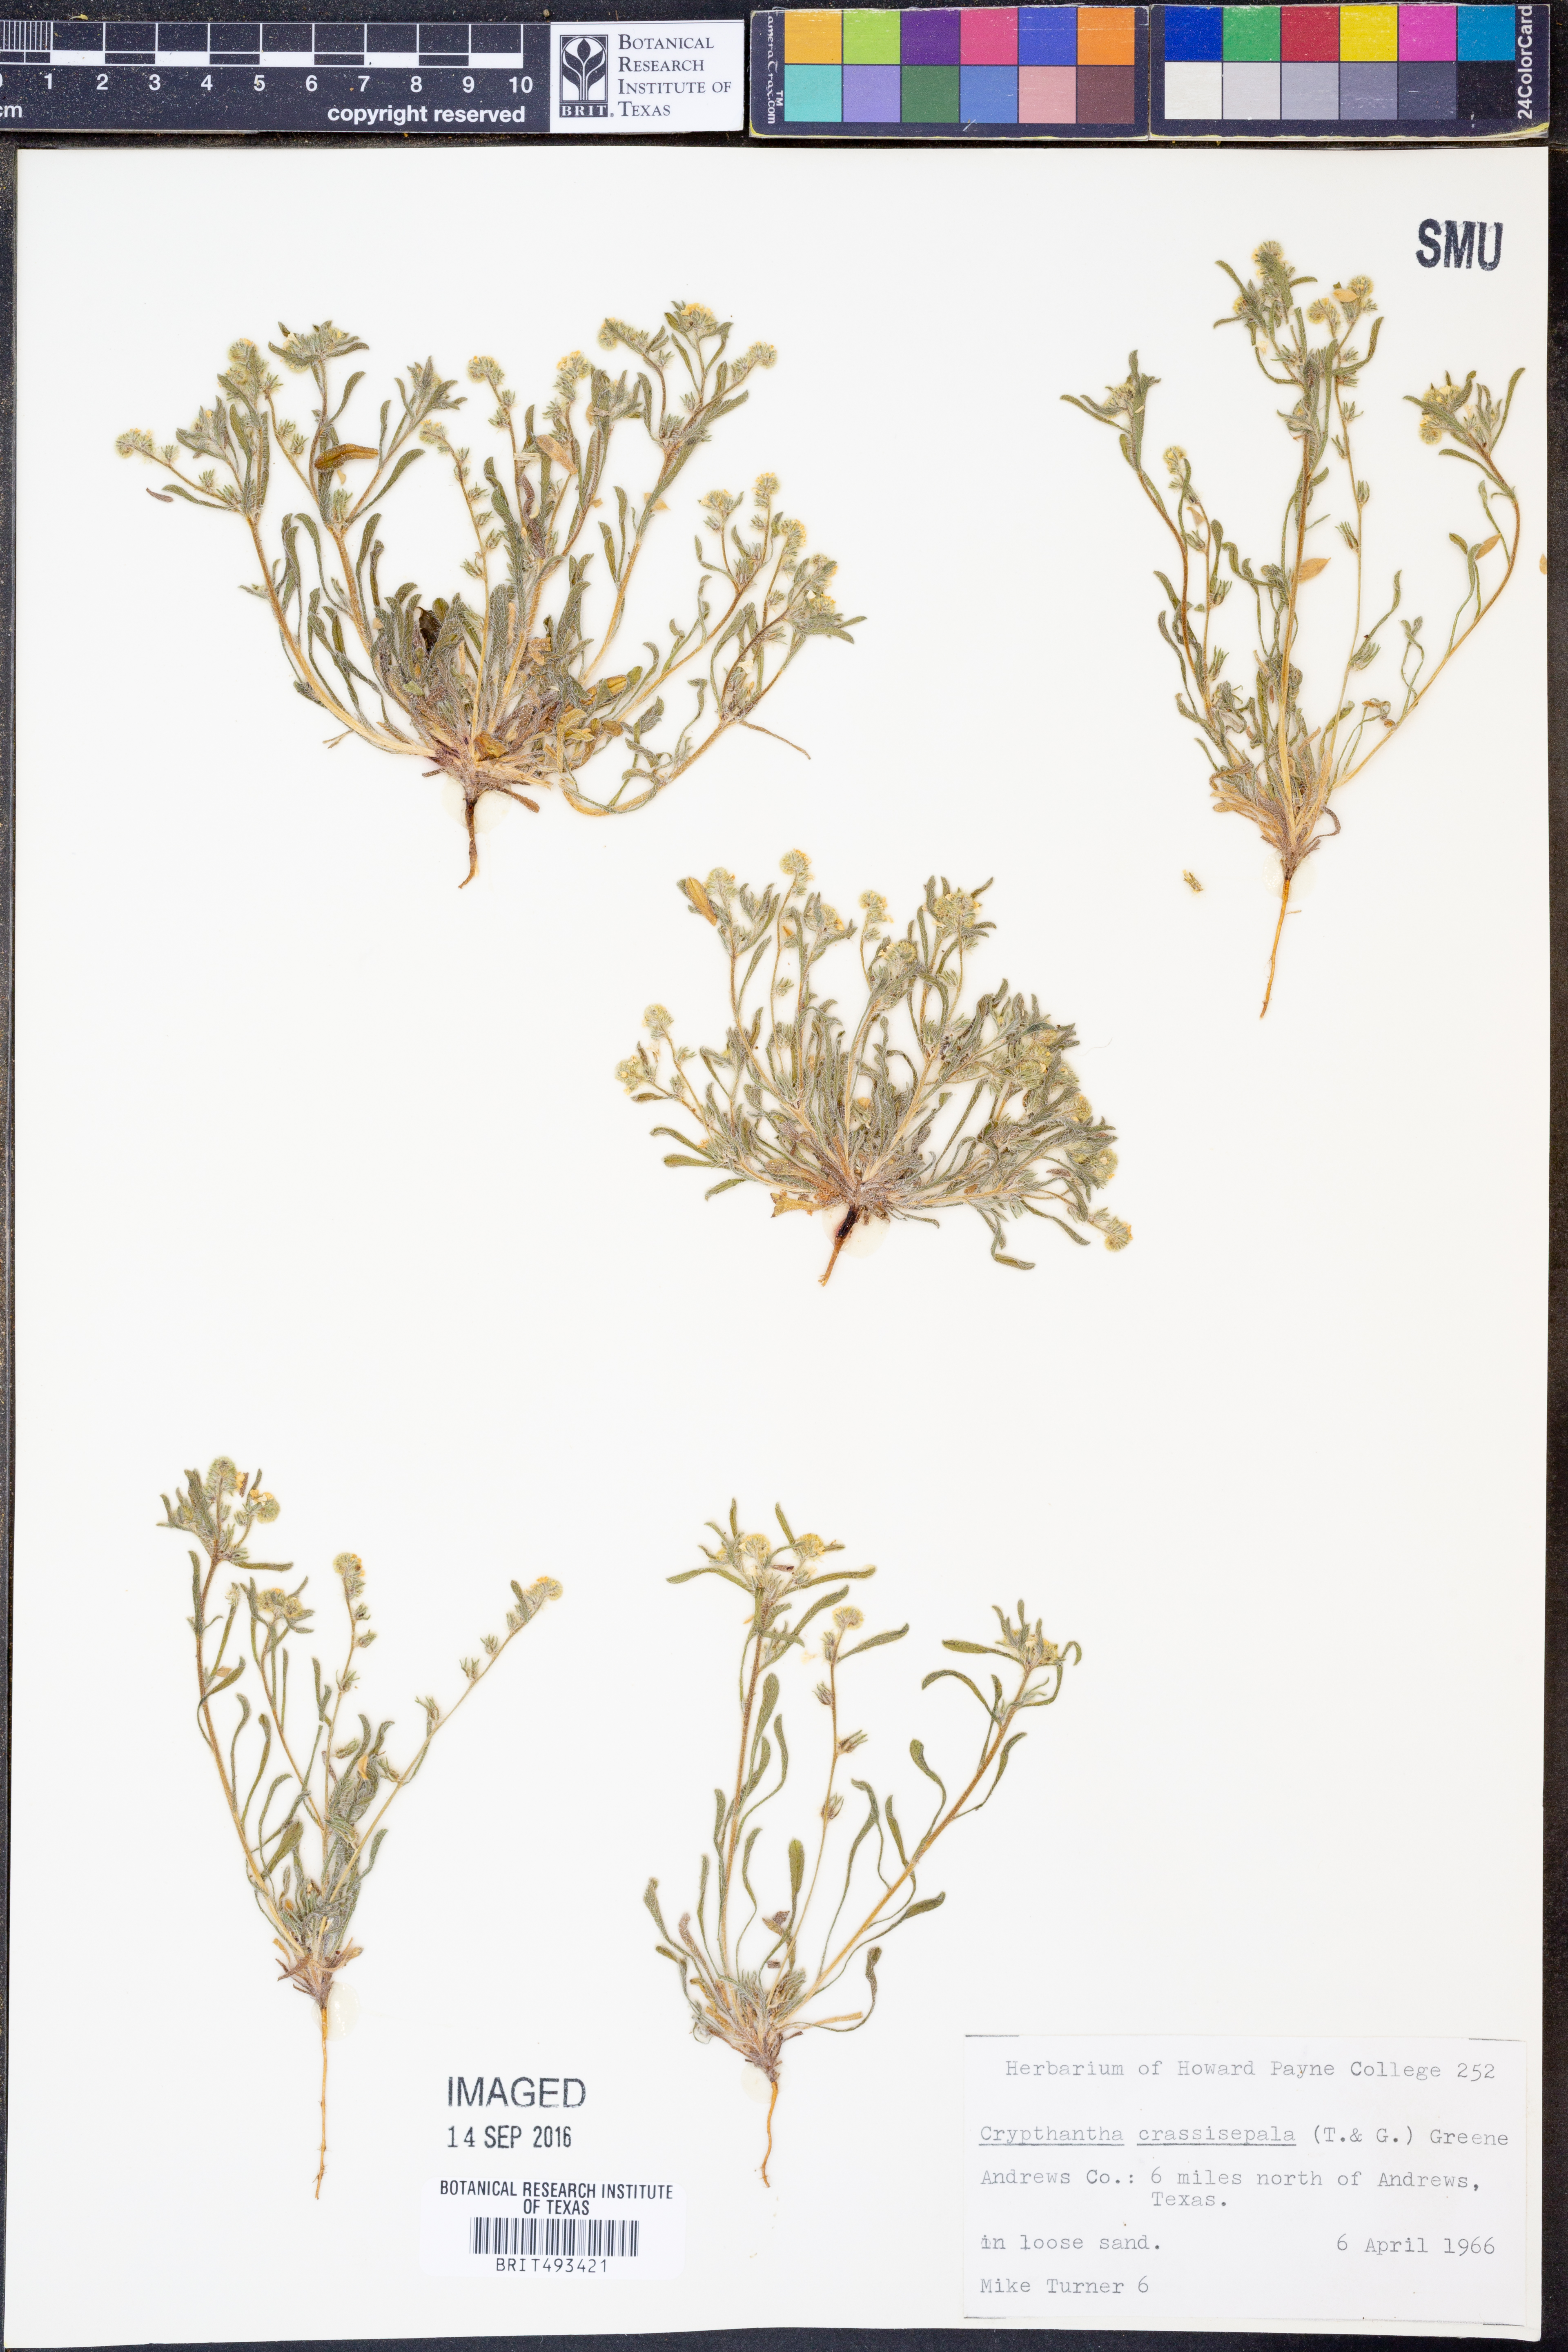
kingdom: Plantae
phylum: Tracheophyta
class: Magnoliopsida
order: Boraginales
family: Boraginaceae
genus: Cryptantha
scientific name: Cryptantha crassisepala
